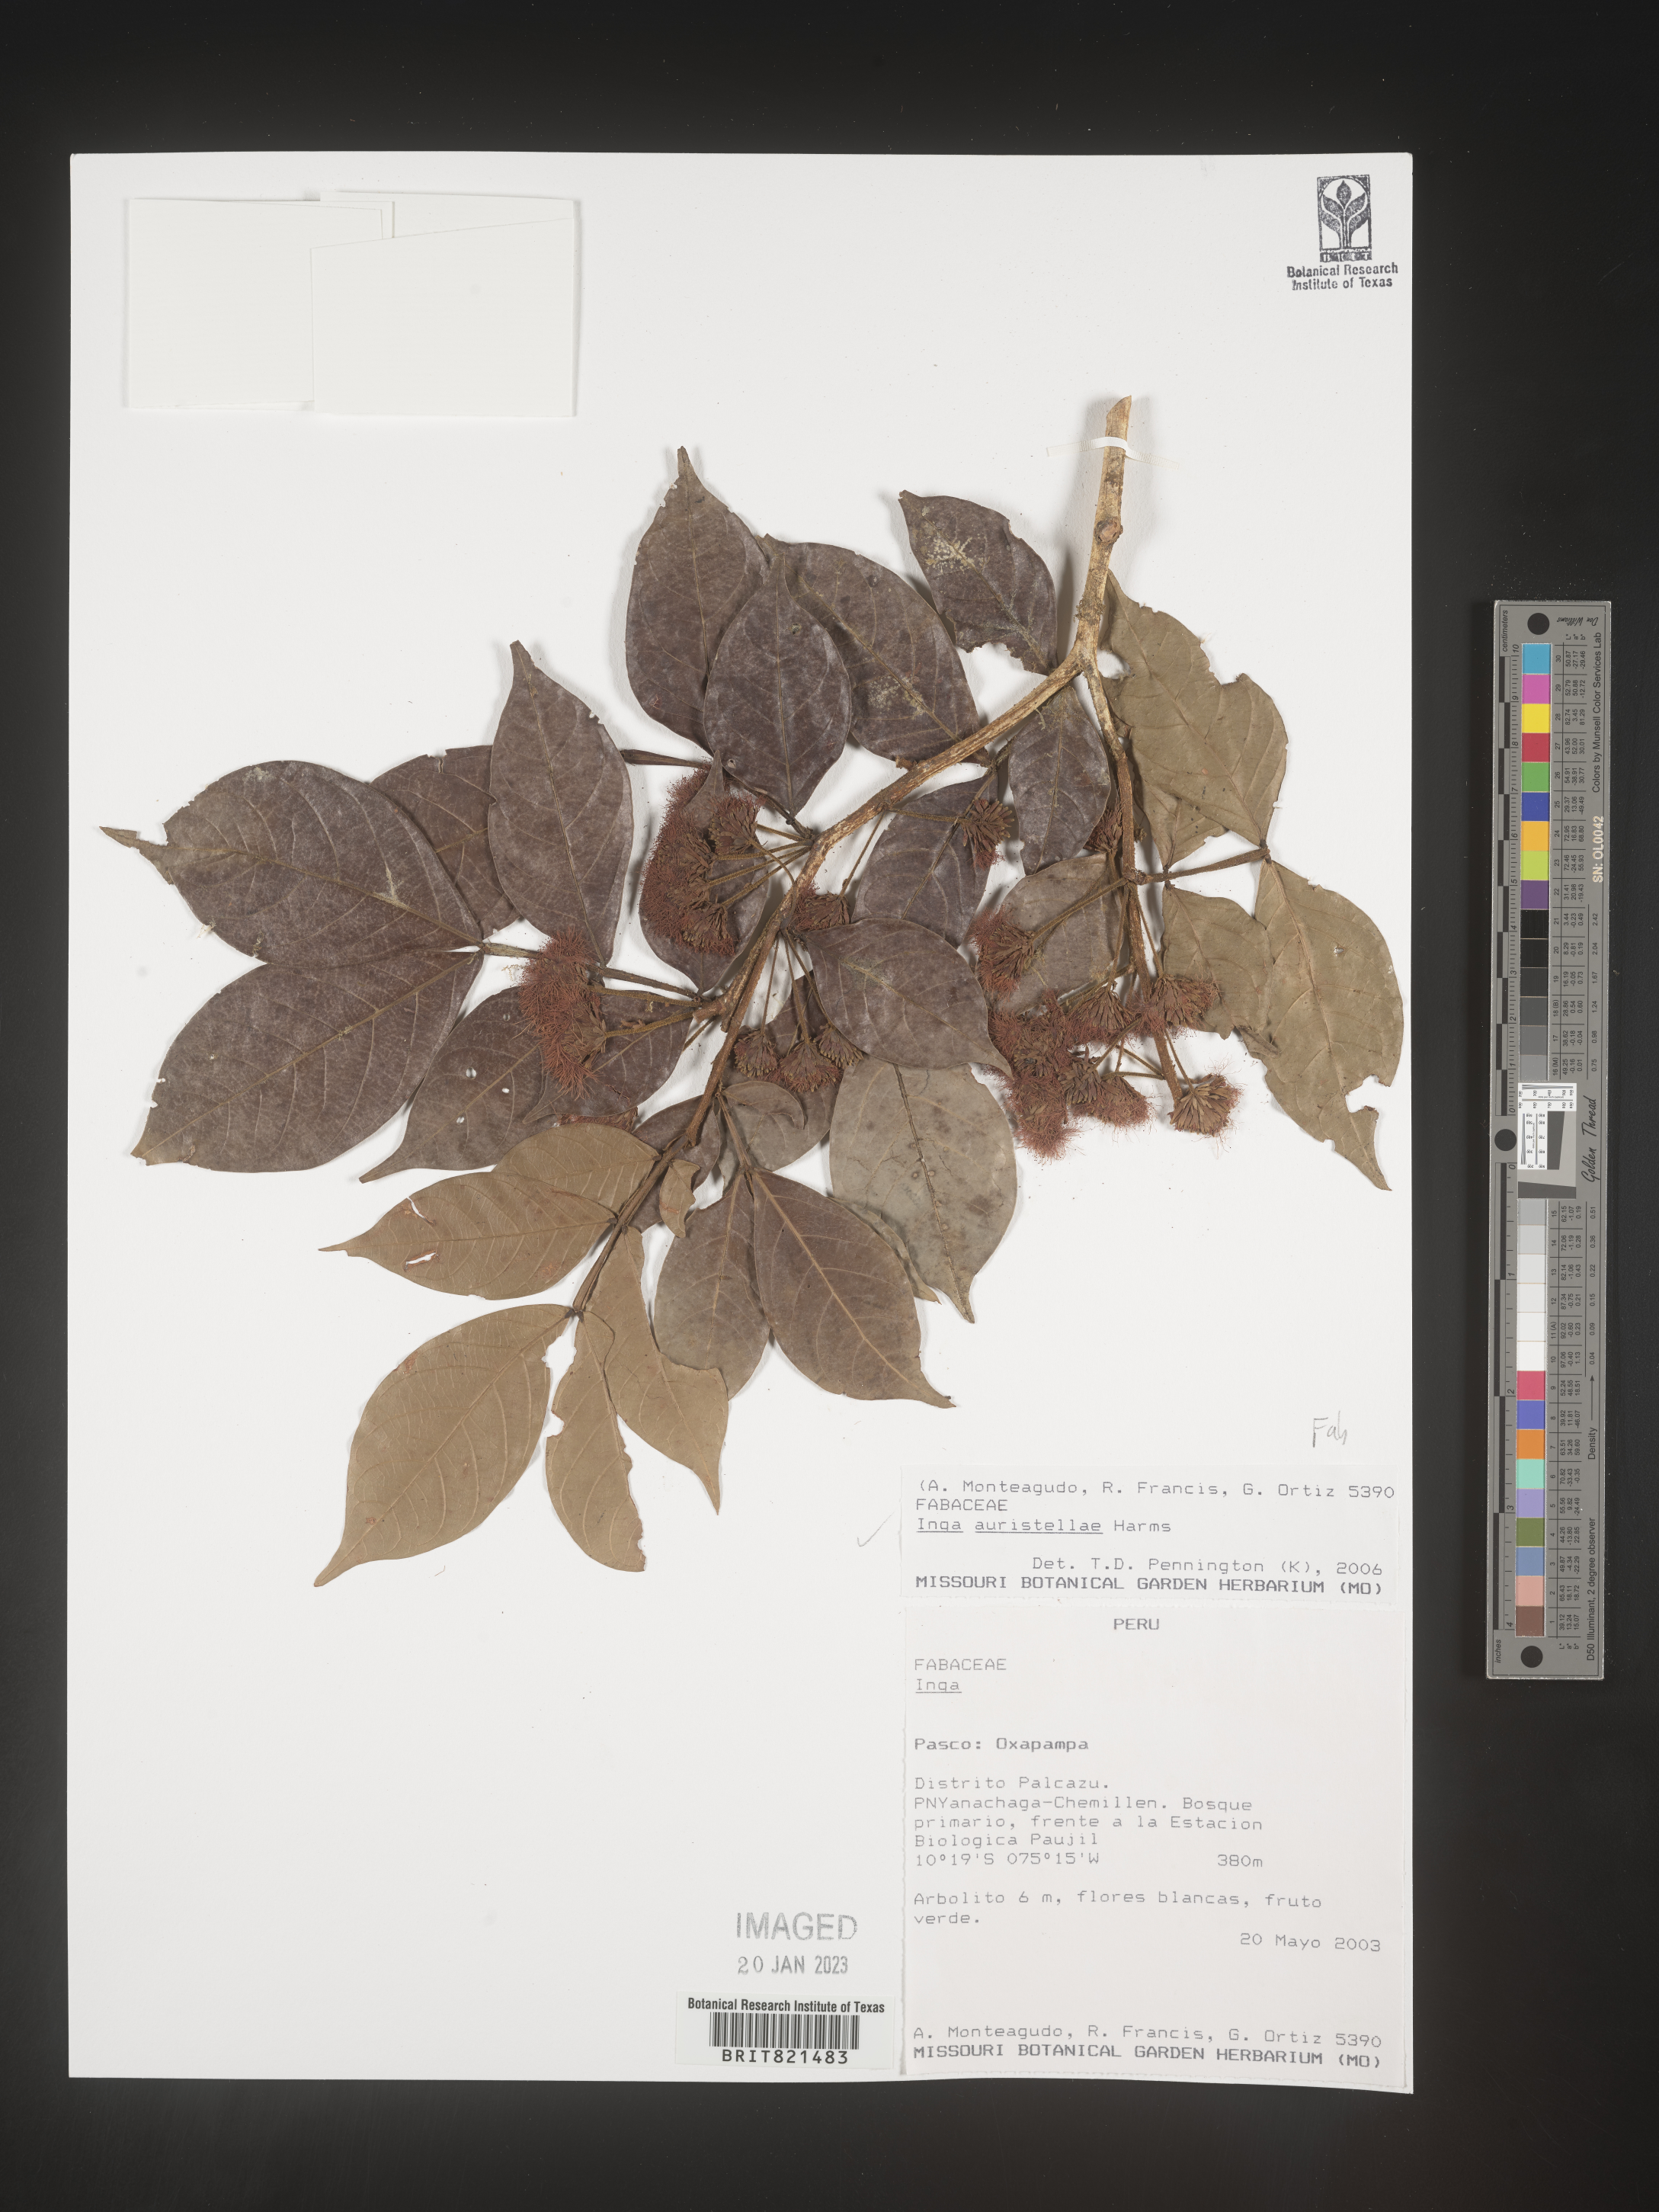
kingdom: Plantae
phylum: Tracheophyta
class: Magnoliopsida
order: Fabales
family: Fabaceae
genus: Inga
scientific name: Inga
